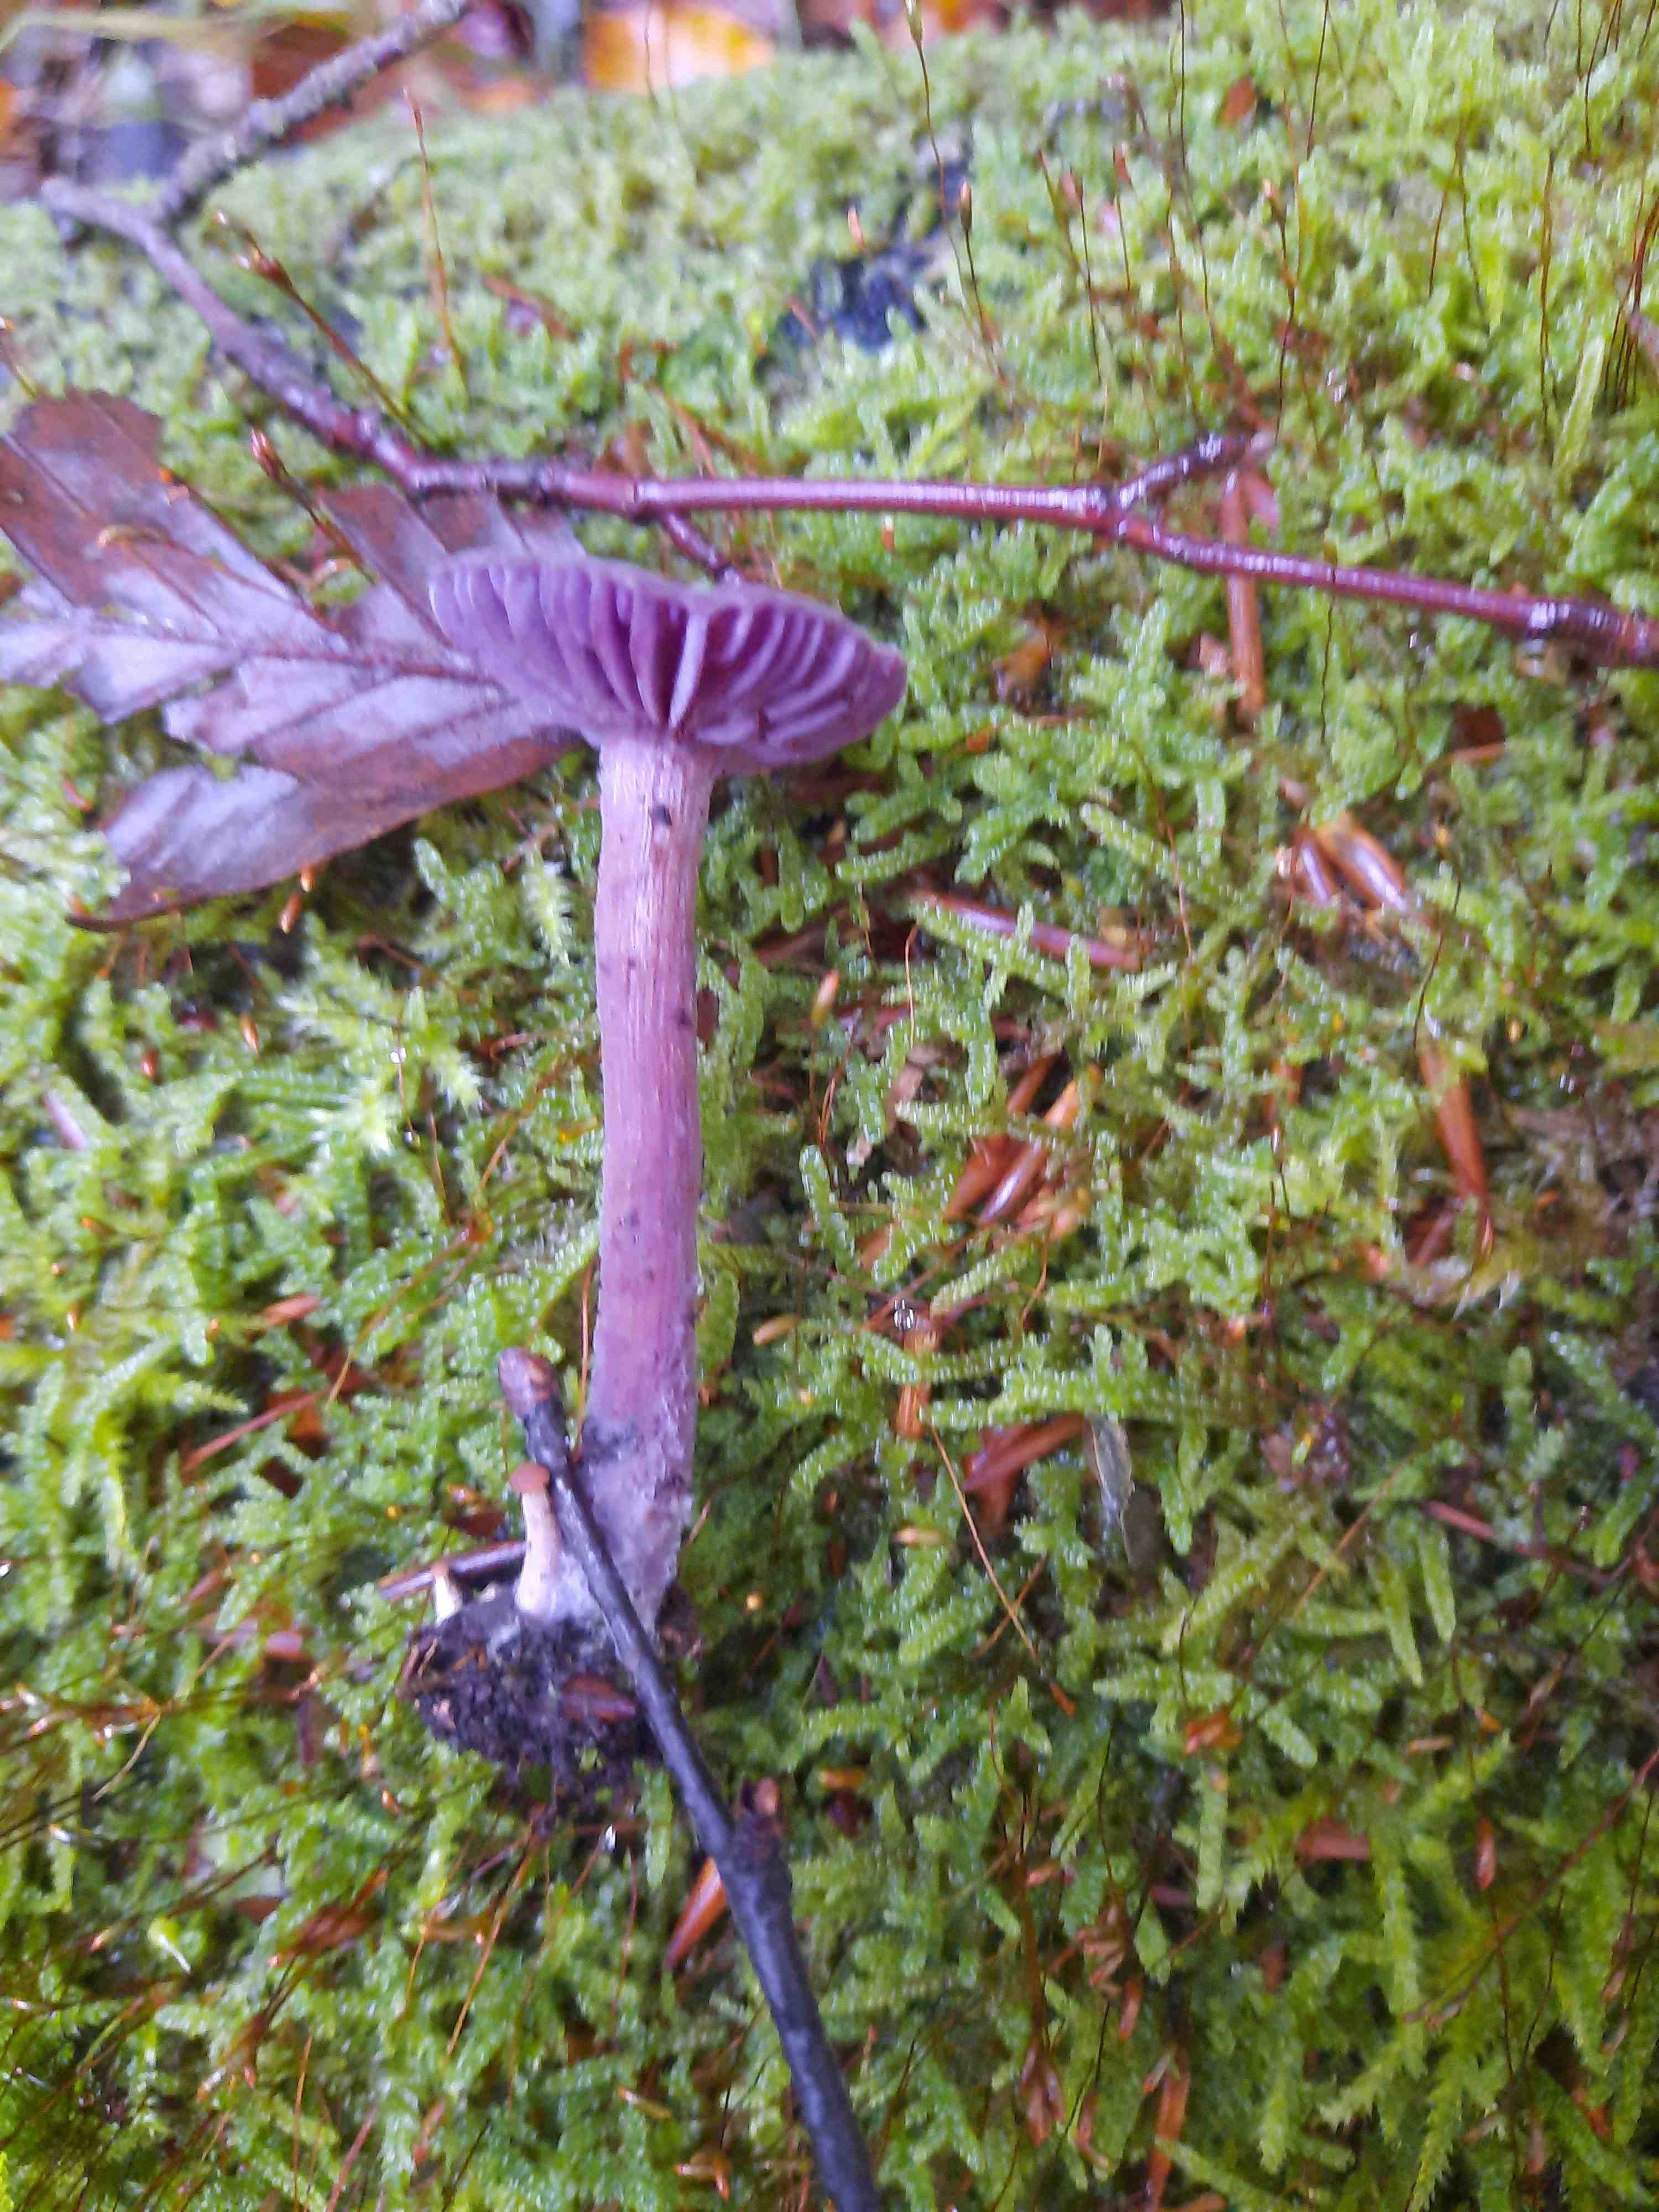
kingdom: Fungi
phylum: Basidiomycota
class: Agaricomycetes
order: Agaricales
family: Hydnangiaceae
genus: Laccaria
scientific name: Laccaria amethystina
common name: violet ametysthat
